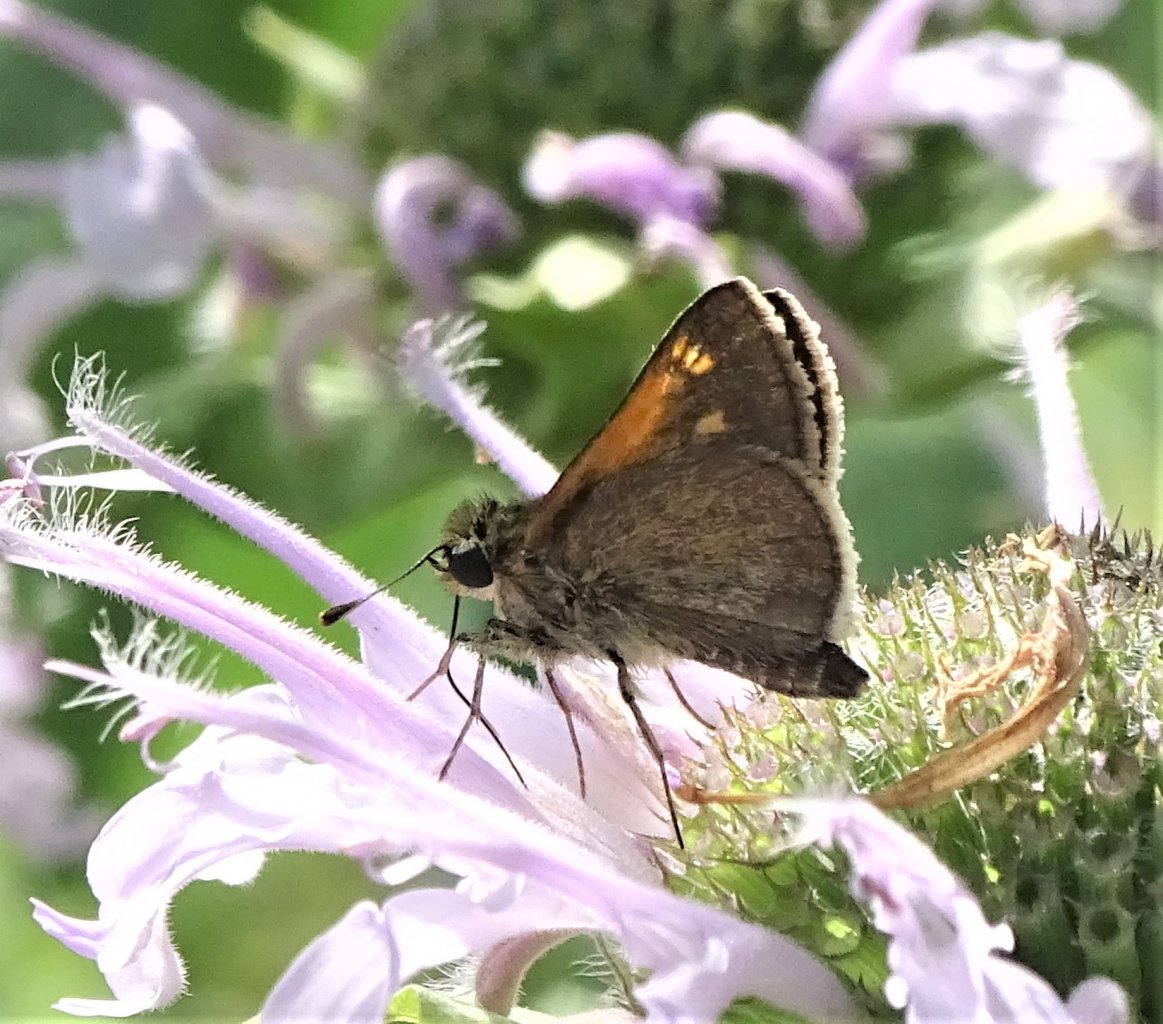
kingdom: Animalia
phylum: Arthropoda
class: Insecta
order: Lepidoptera
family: Hesperiidae
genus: Polites
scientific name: Polites themistocles
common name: Tawny-edged Skipper
